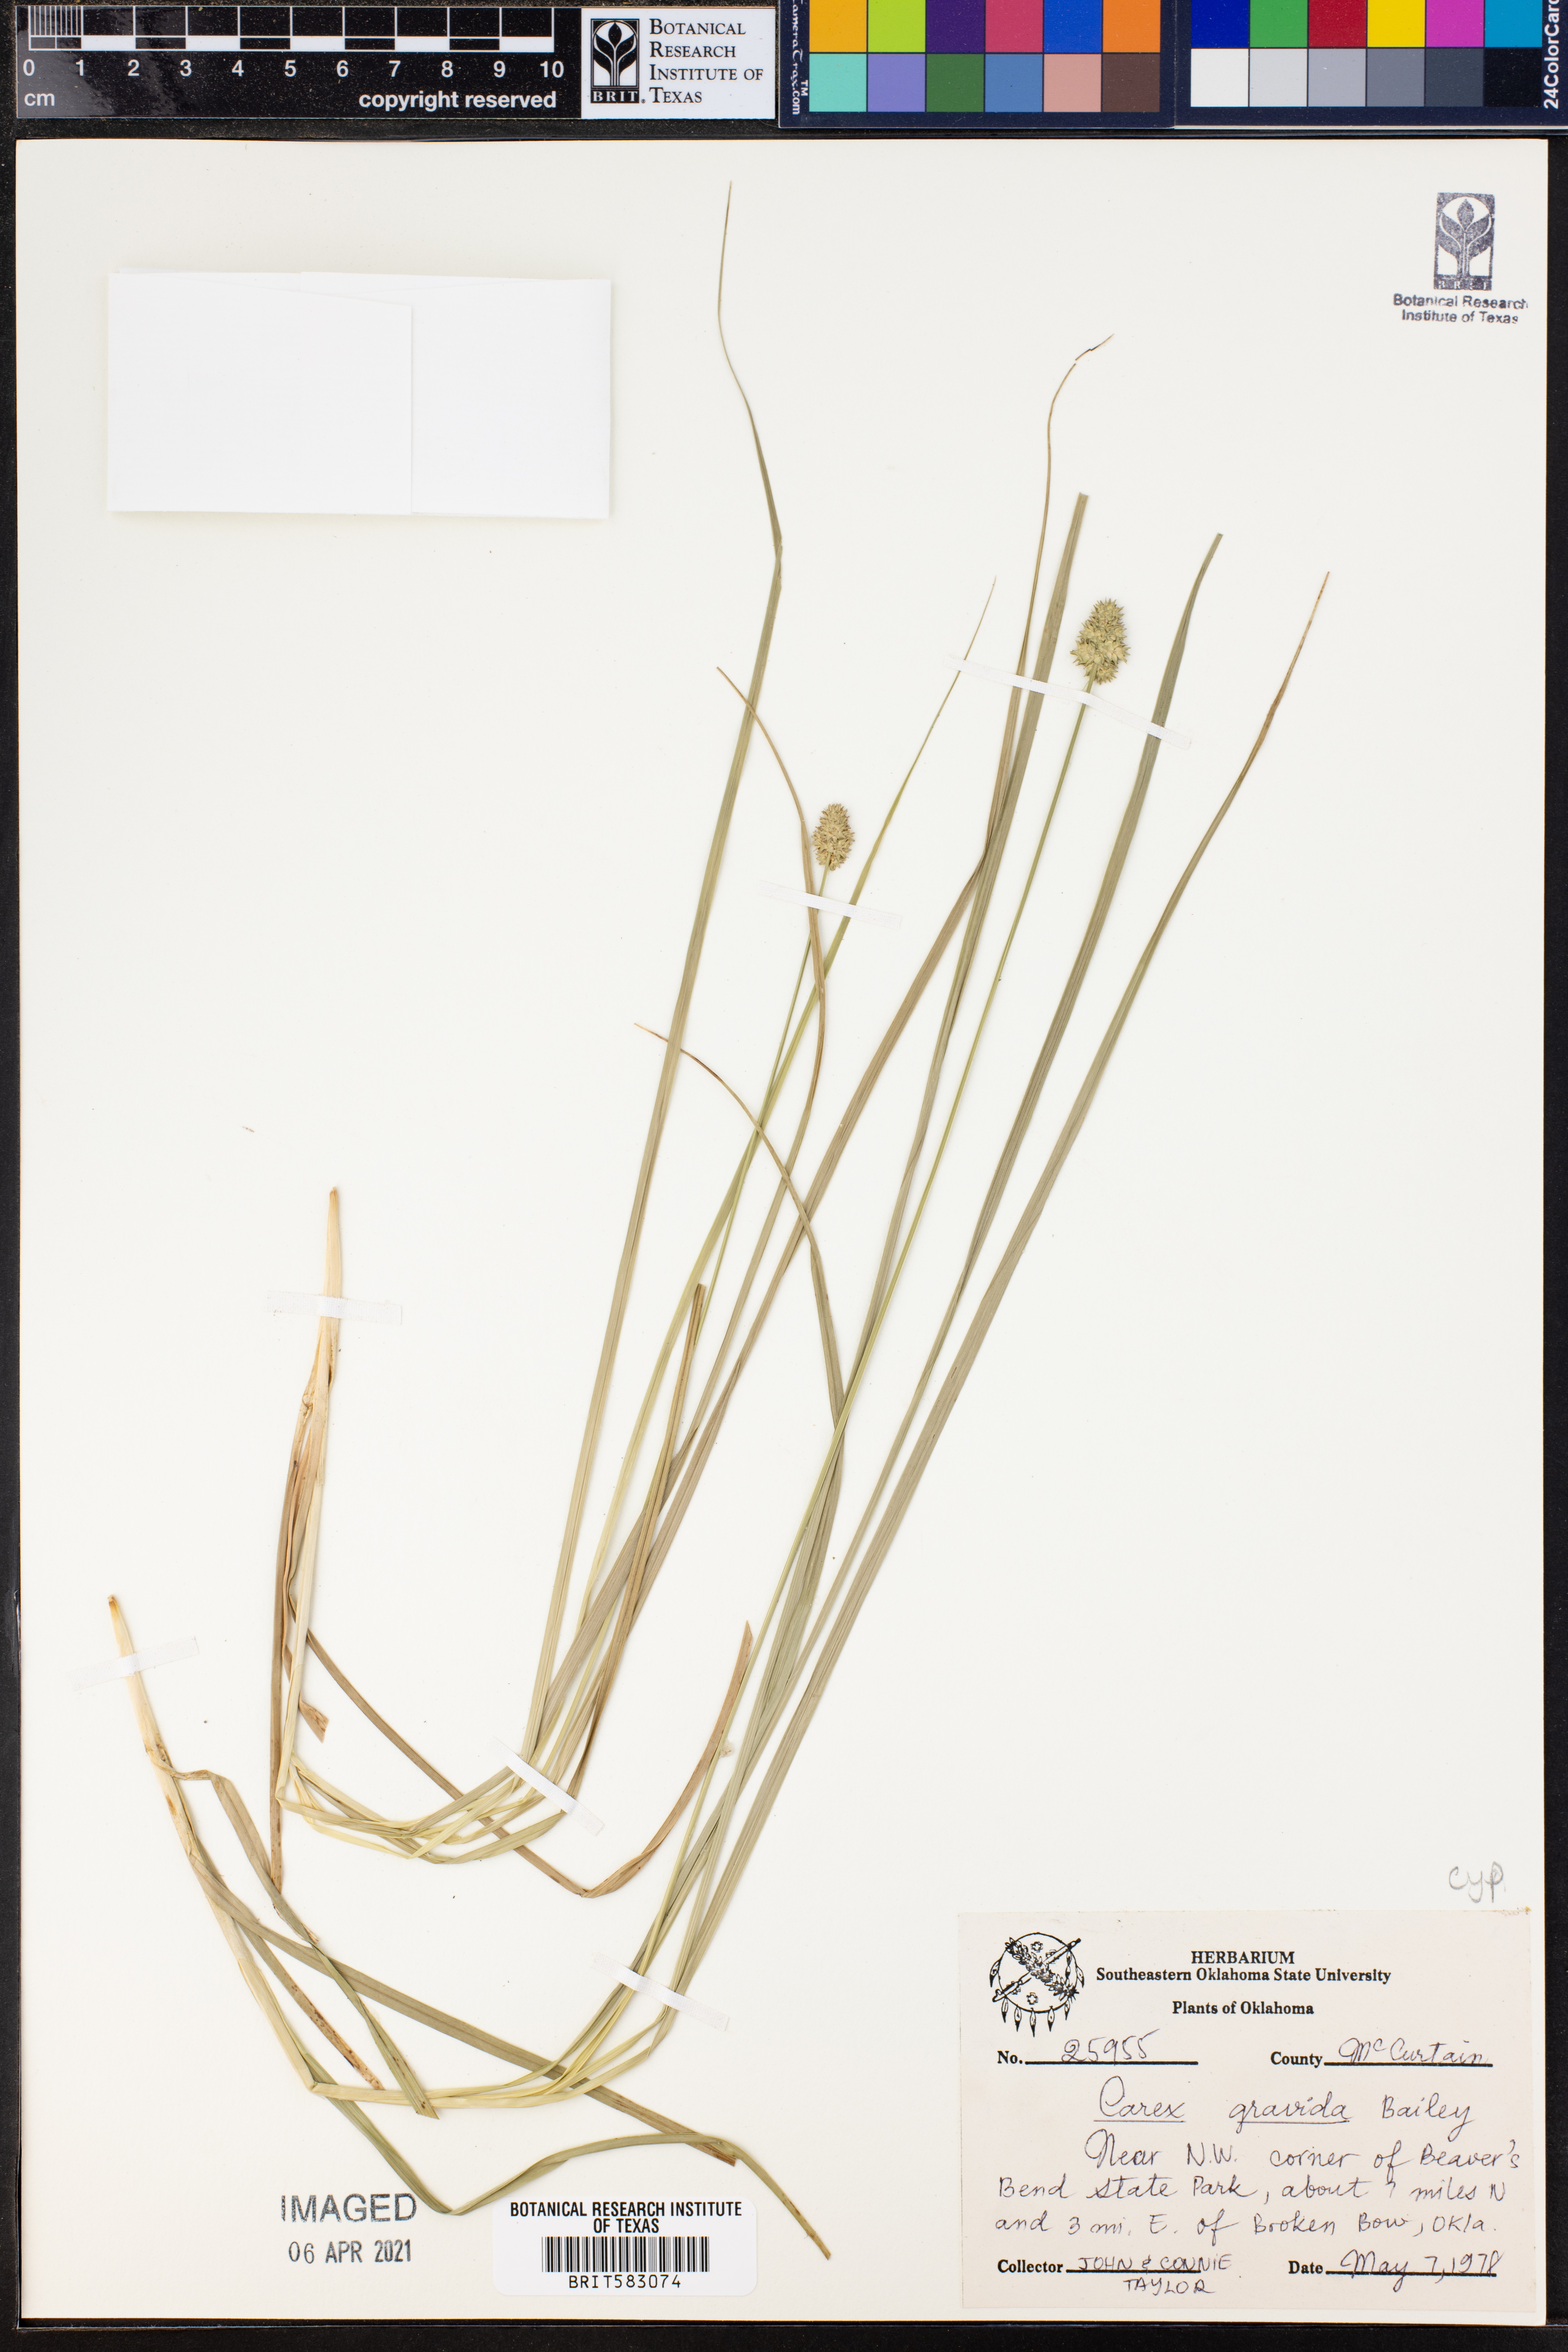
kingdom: Plantae
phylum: Tracheophyta
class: Liliopsida
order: Poales
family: Cyperaceae
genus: Carex
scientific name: Carex gravida
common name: Heavy sedge
